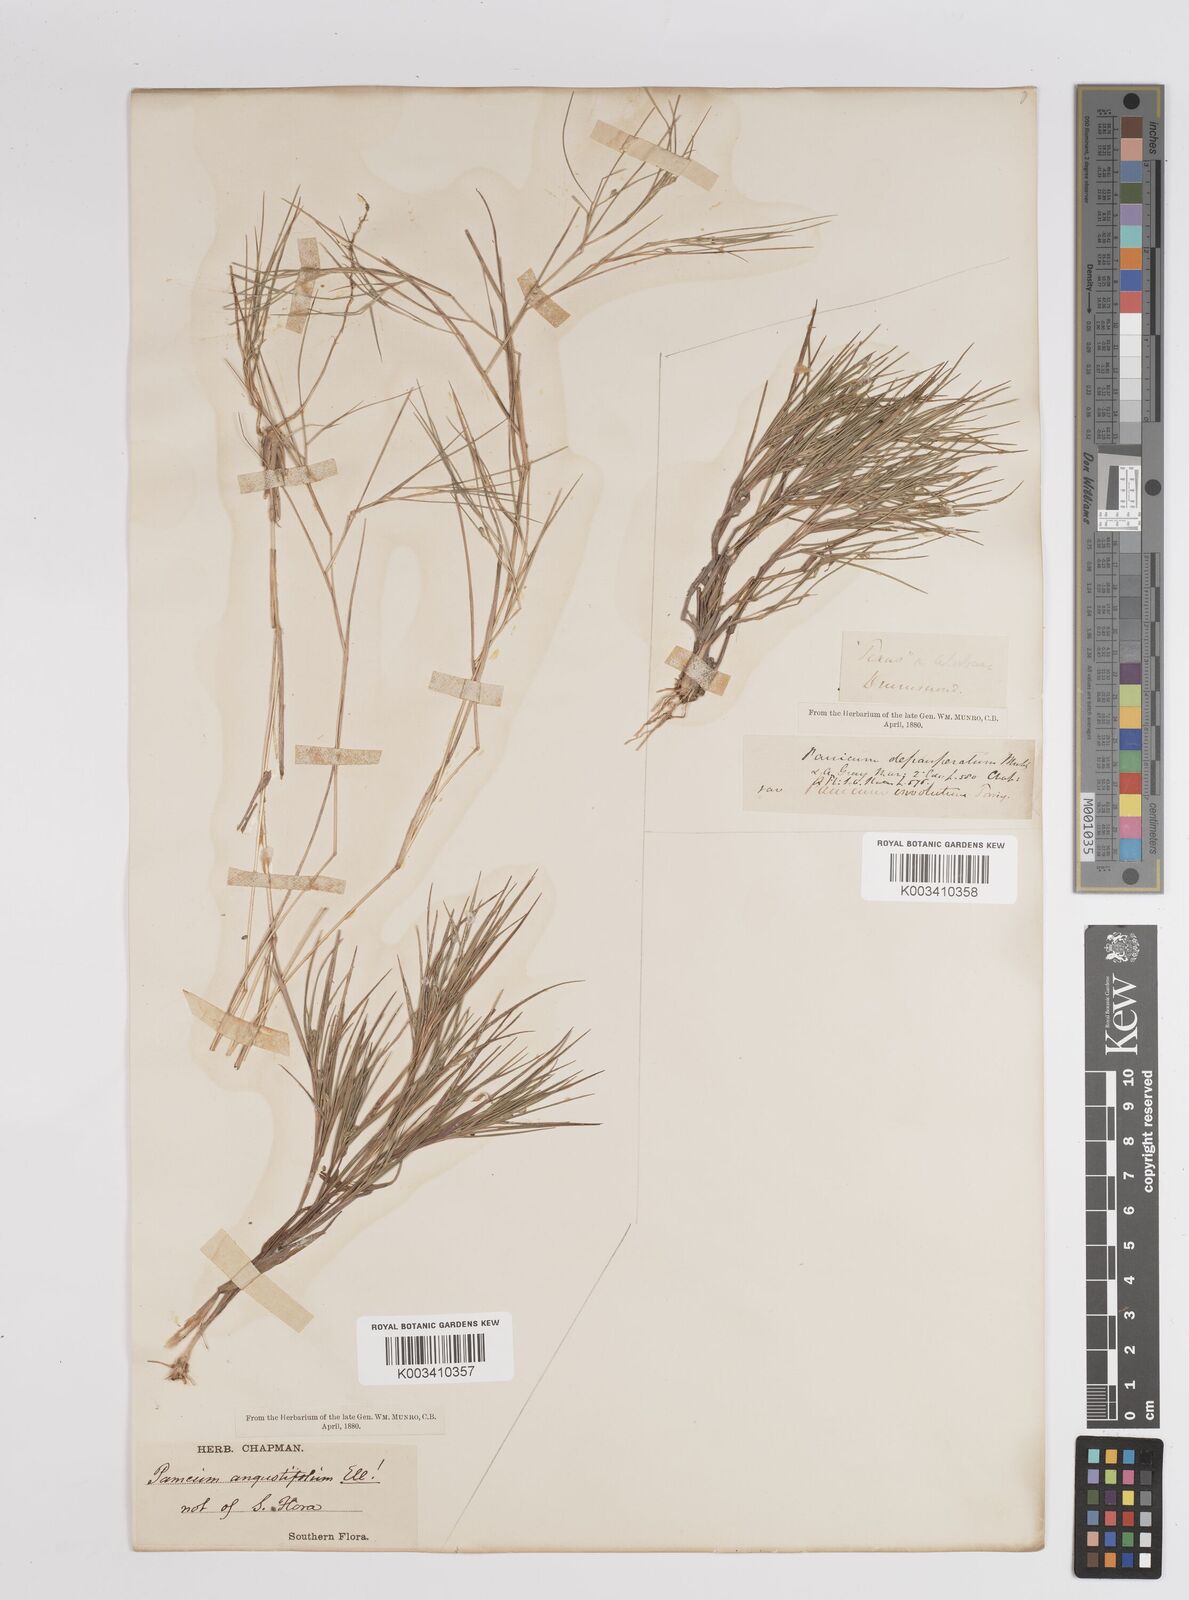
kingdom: Plantae
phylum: Tracheophyta
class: Liliopsida
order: Poales
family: Poaceae
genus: Dichanthelium
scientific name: Dichanthelium angustifolium
